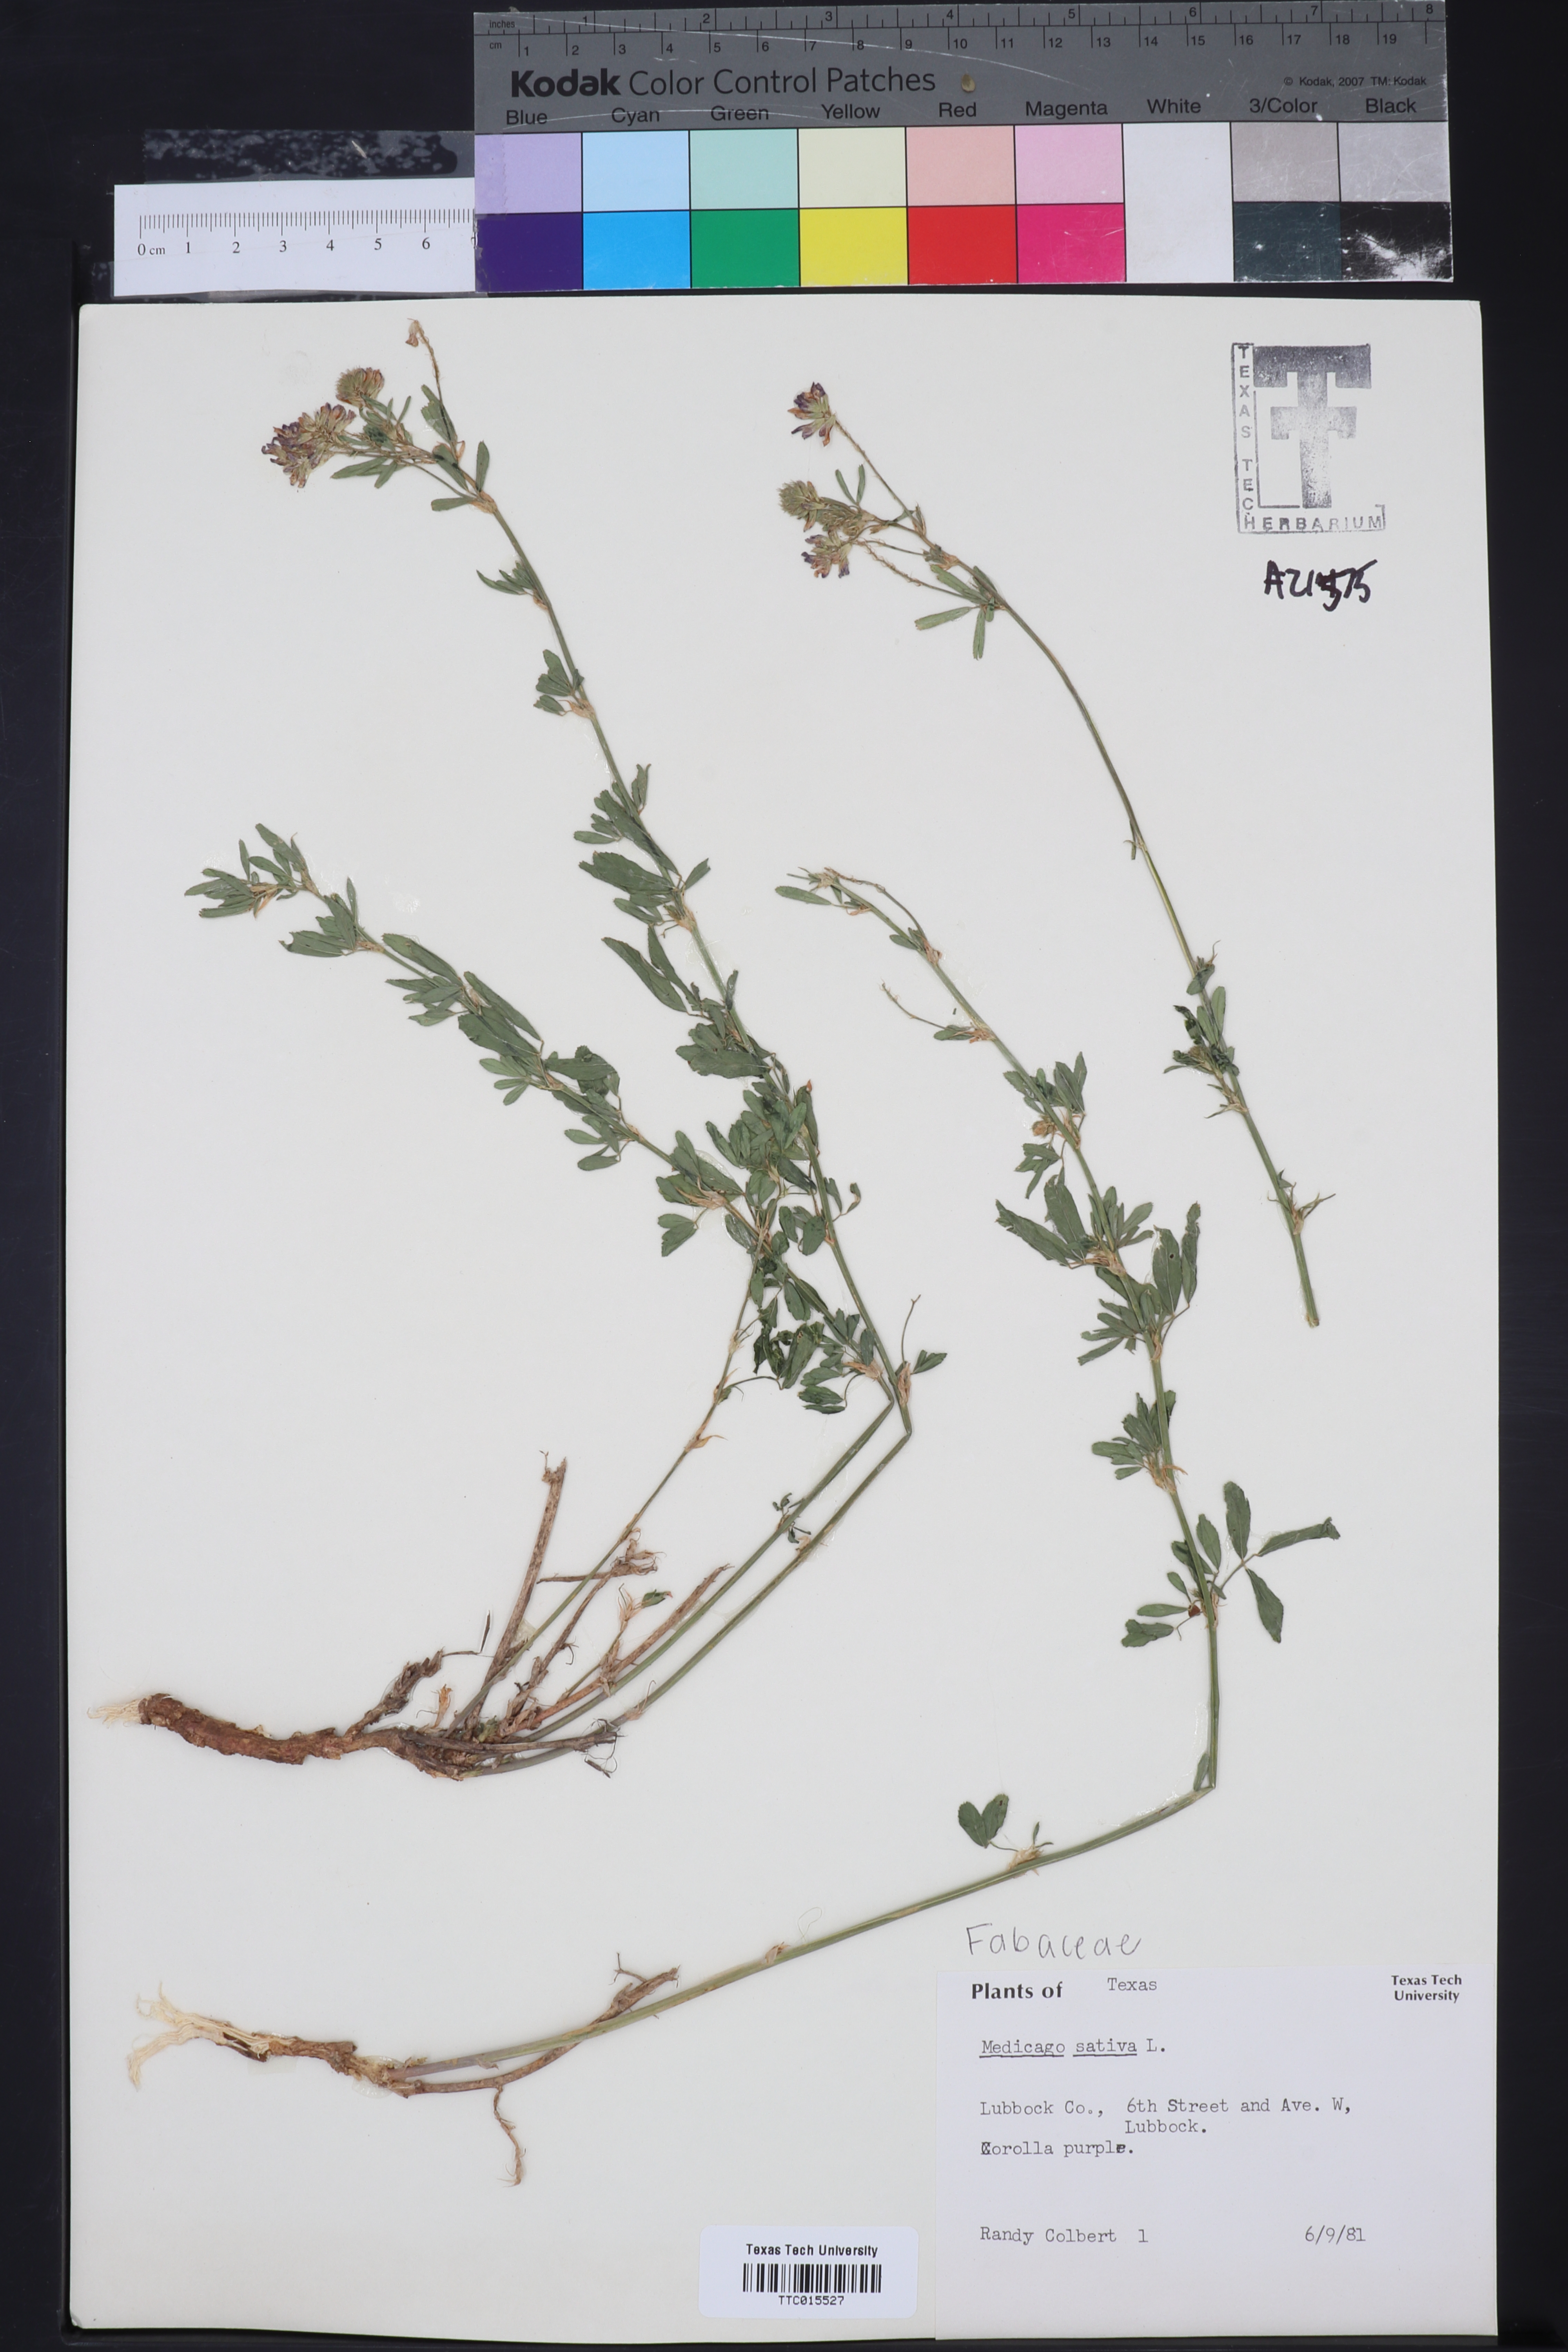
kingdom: Plantae
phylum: Tracheophyta
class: Magnoliopsida
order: Fabales
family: Fabaceae
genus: Medicago
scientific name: Medicago sativa
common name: Alfalfa
